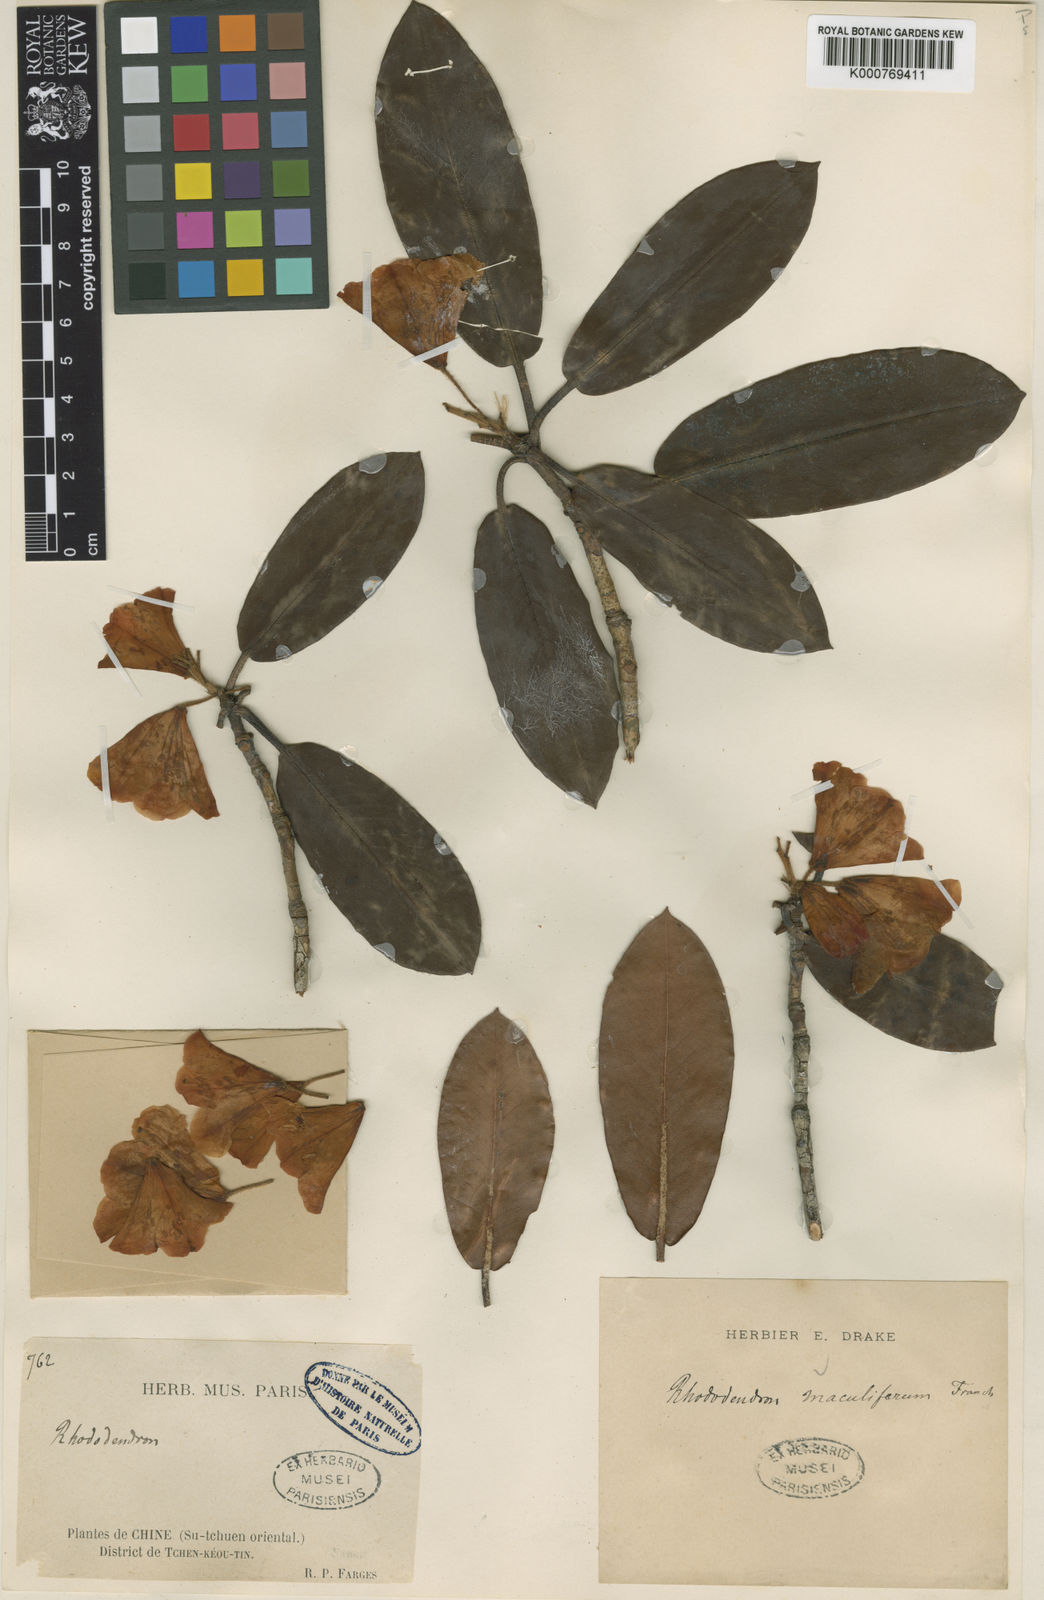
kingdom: Plantae
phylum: Tracheophyta
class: Magnoliopsida
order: Ericales
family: Ericaceae
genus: Rhododendron
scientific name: Rhododendron maculiferum
